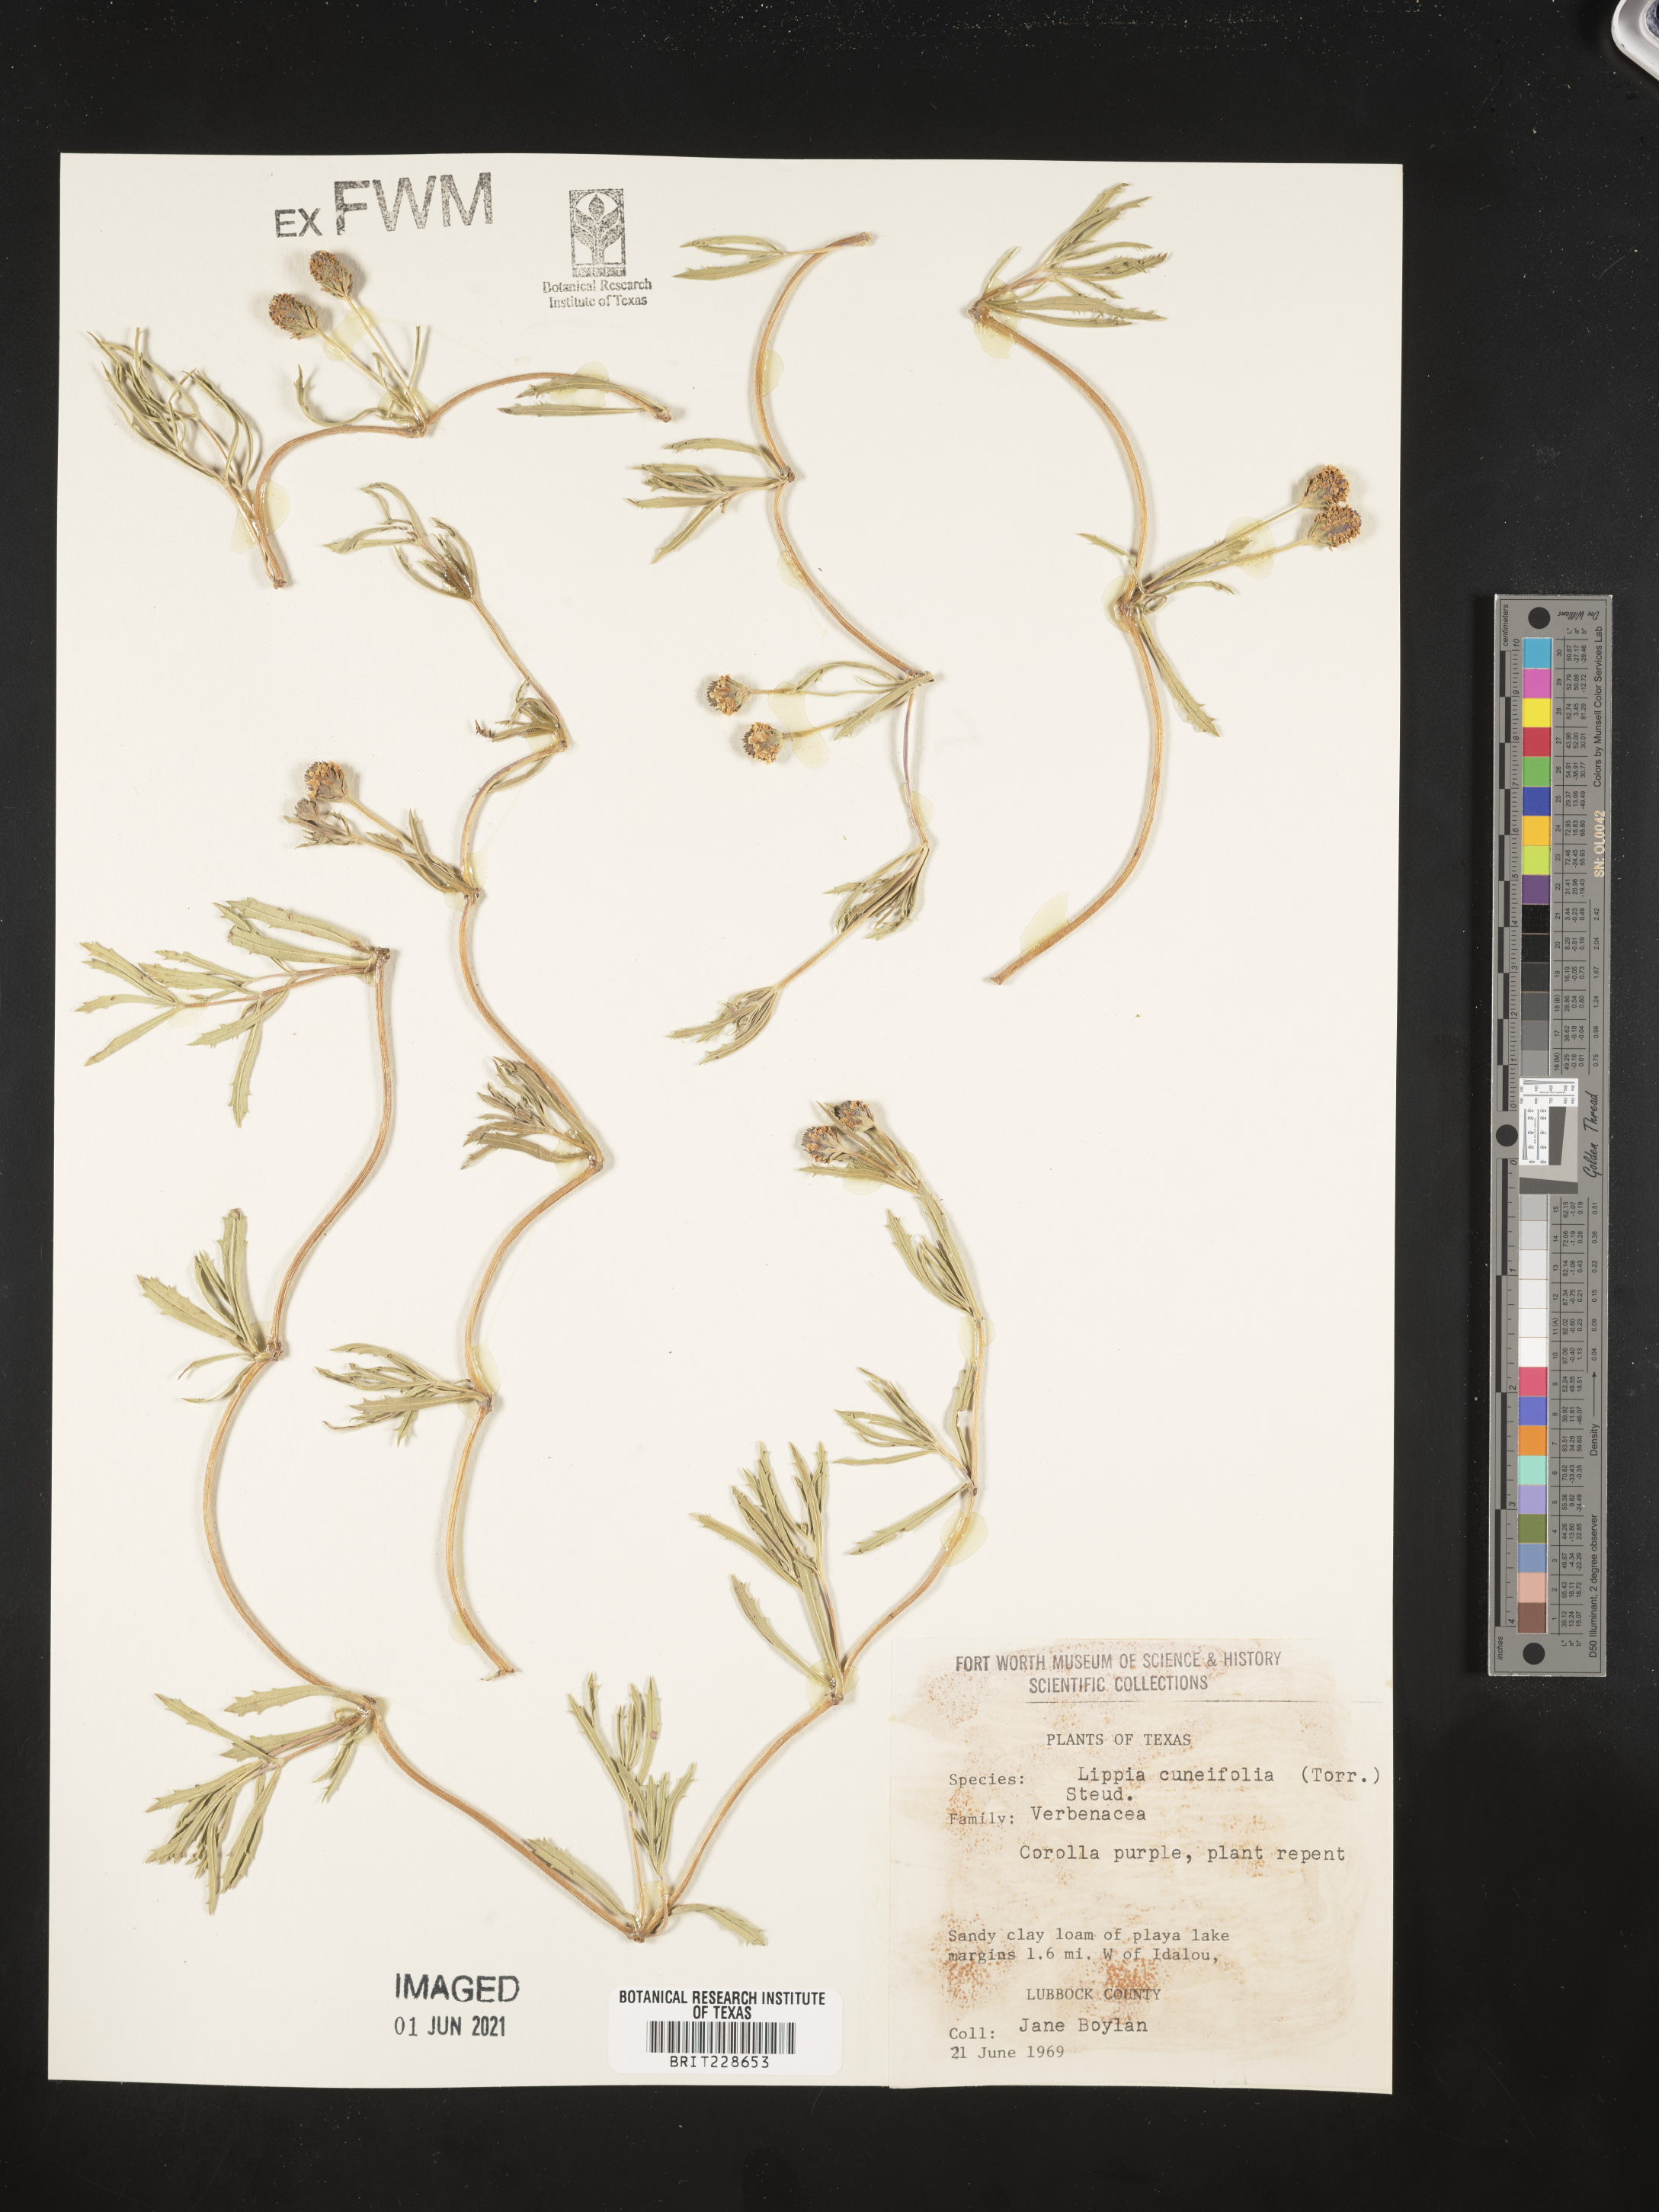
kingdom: Plantae
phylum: Tracheophyta
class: Magnoliopsida
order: Lamiales
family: Verbenaceae
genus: Phyla
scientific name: Phyla cuneifolia
